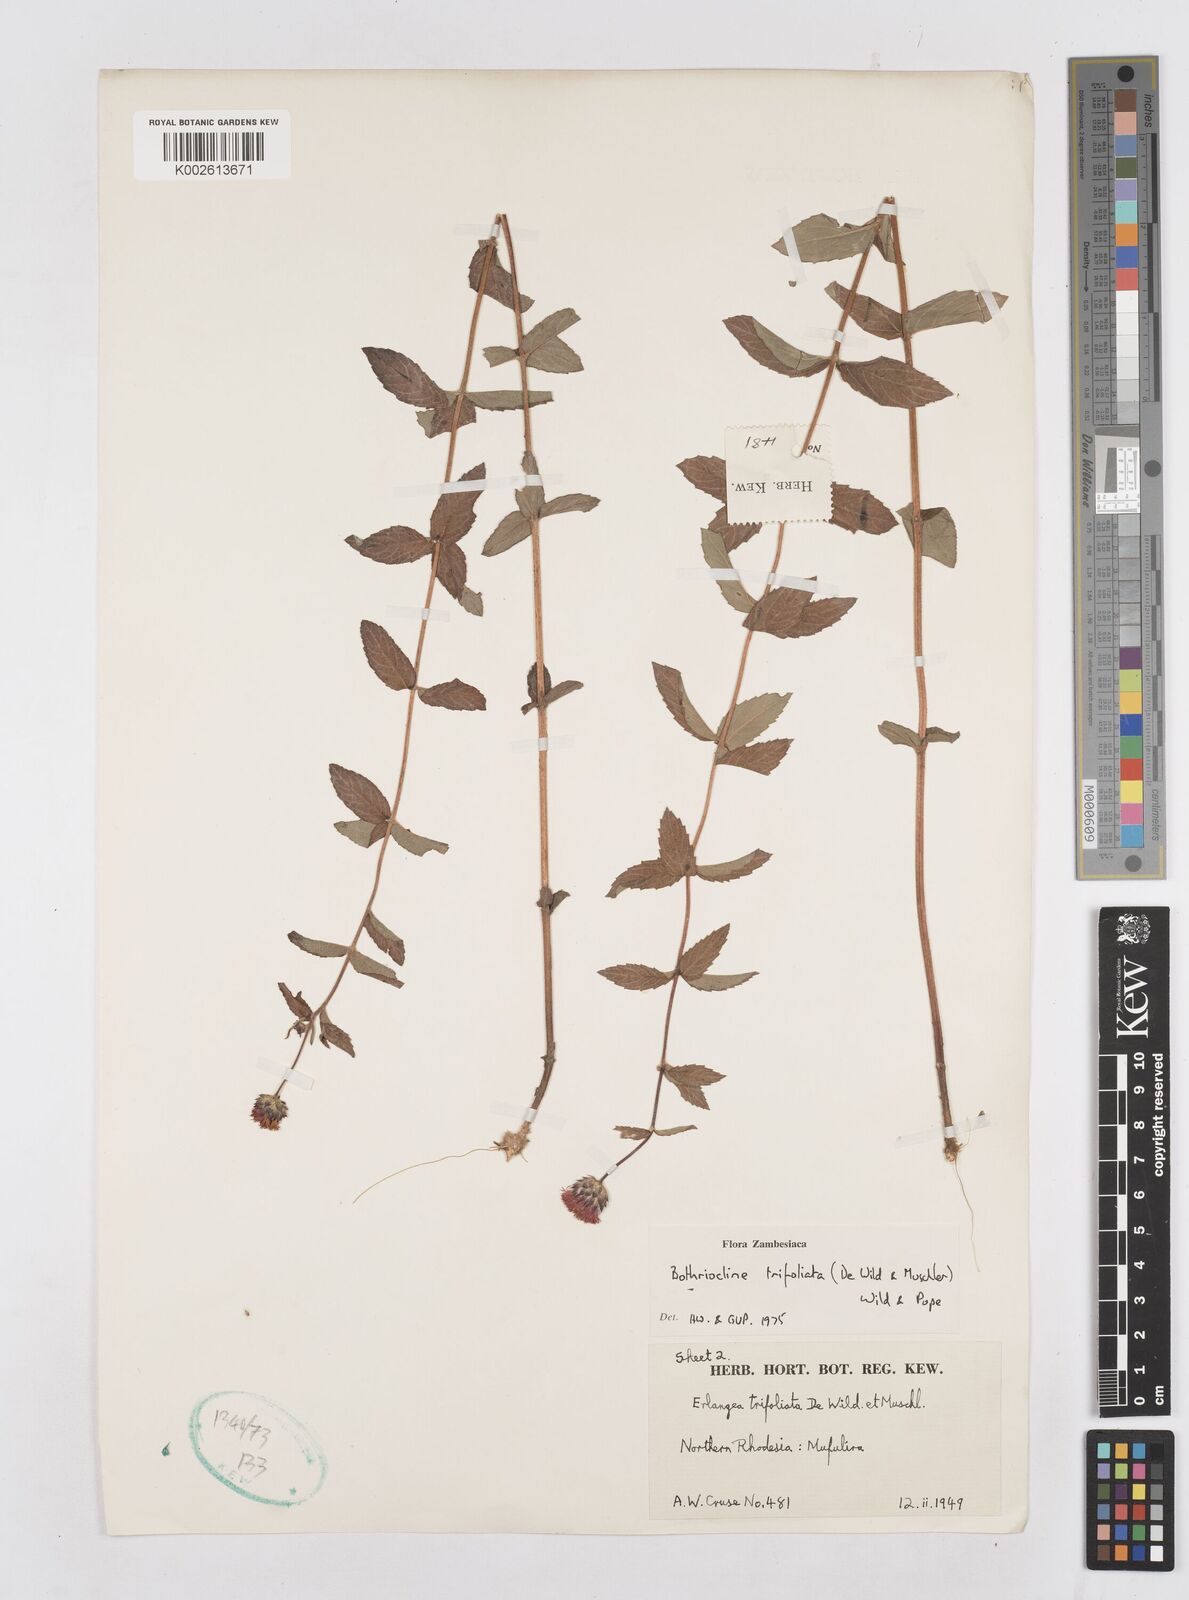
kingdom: Plantae
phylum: Tracheophyta
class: Magnoliopsida
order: Asterales
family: Asteraceae
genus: Bothriocline
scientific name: Bothriocline trifoliata
